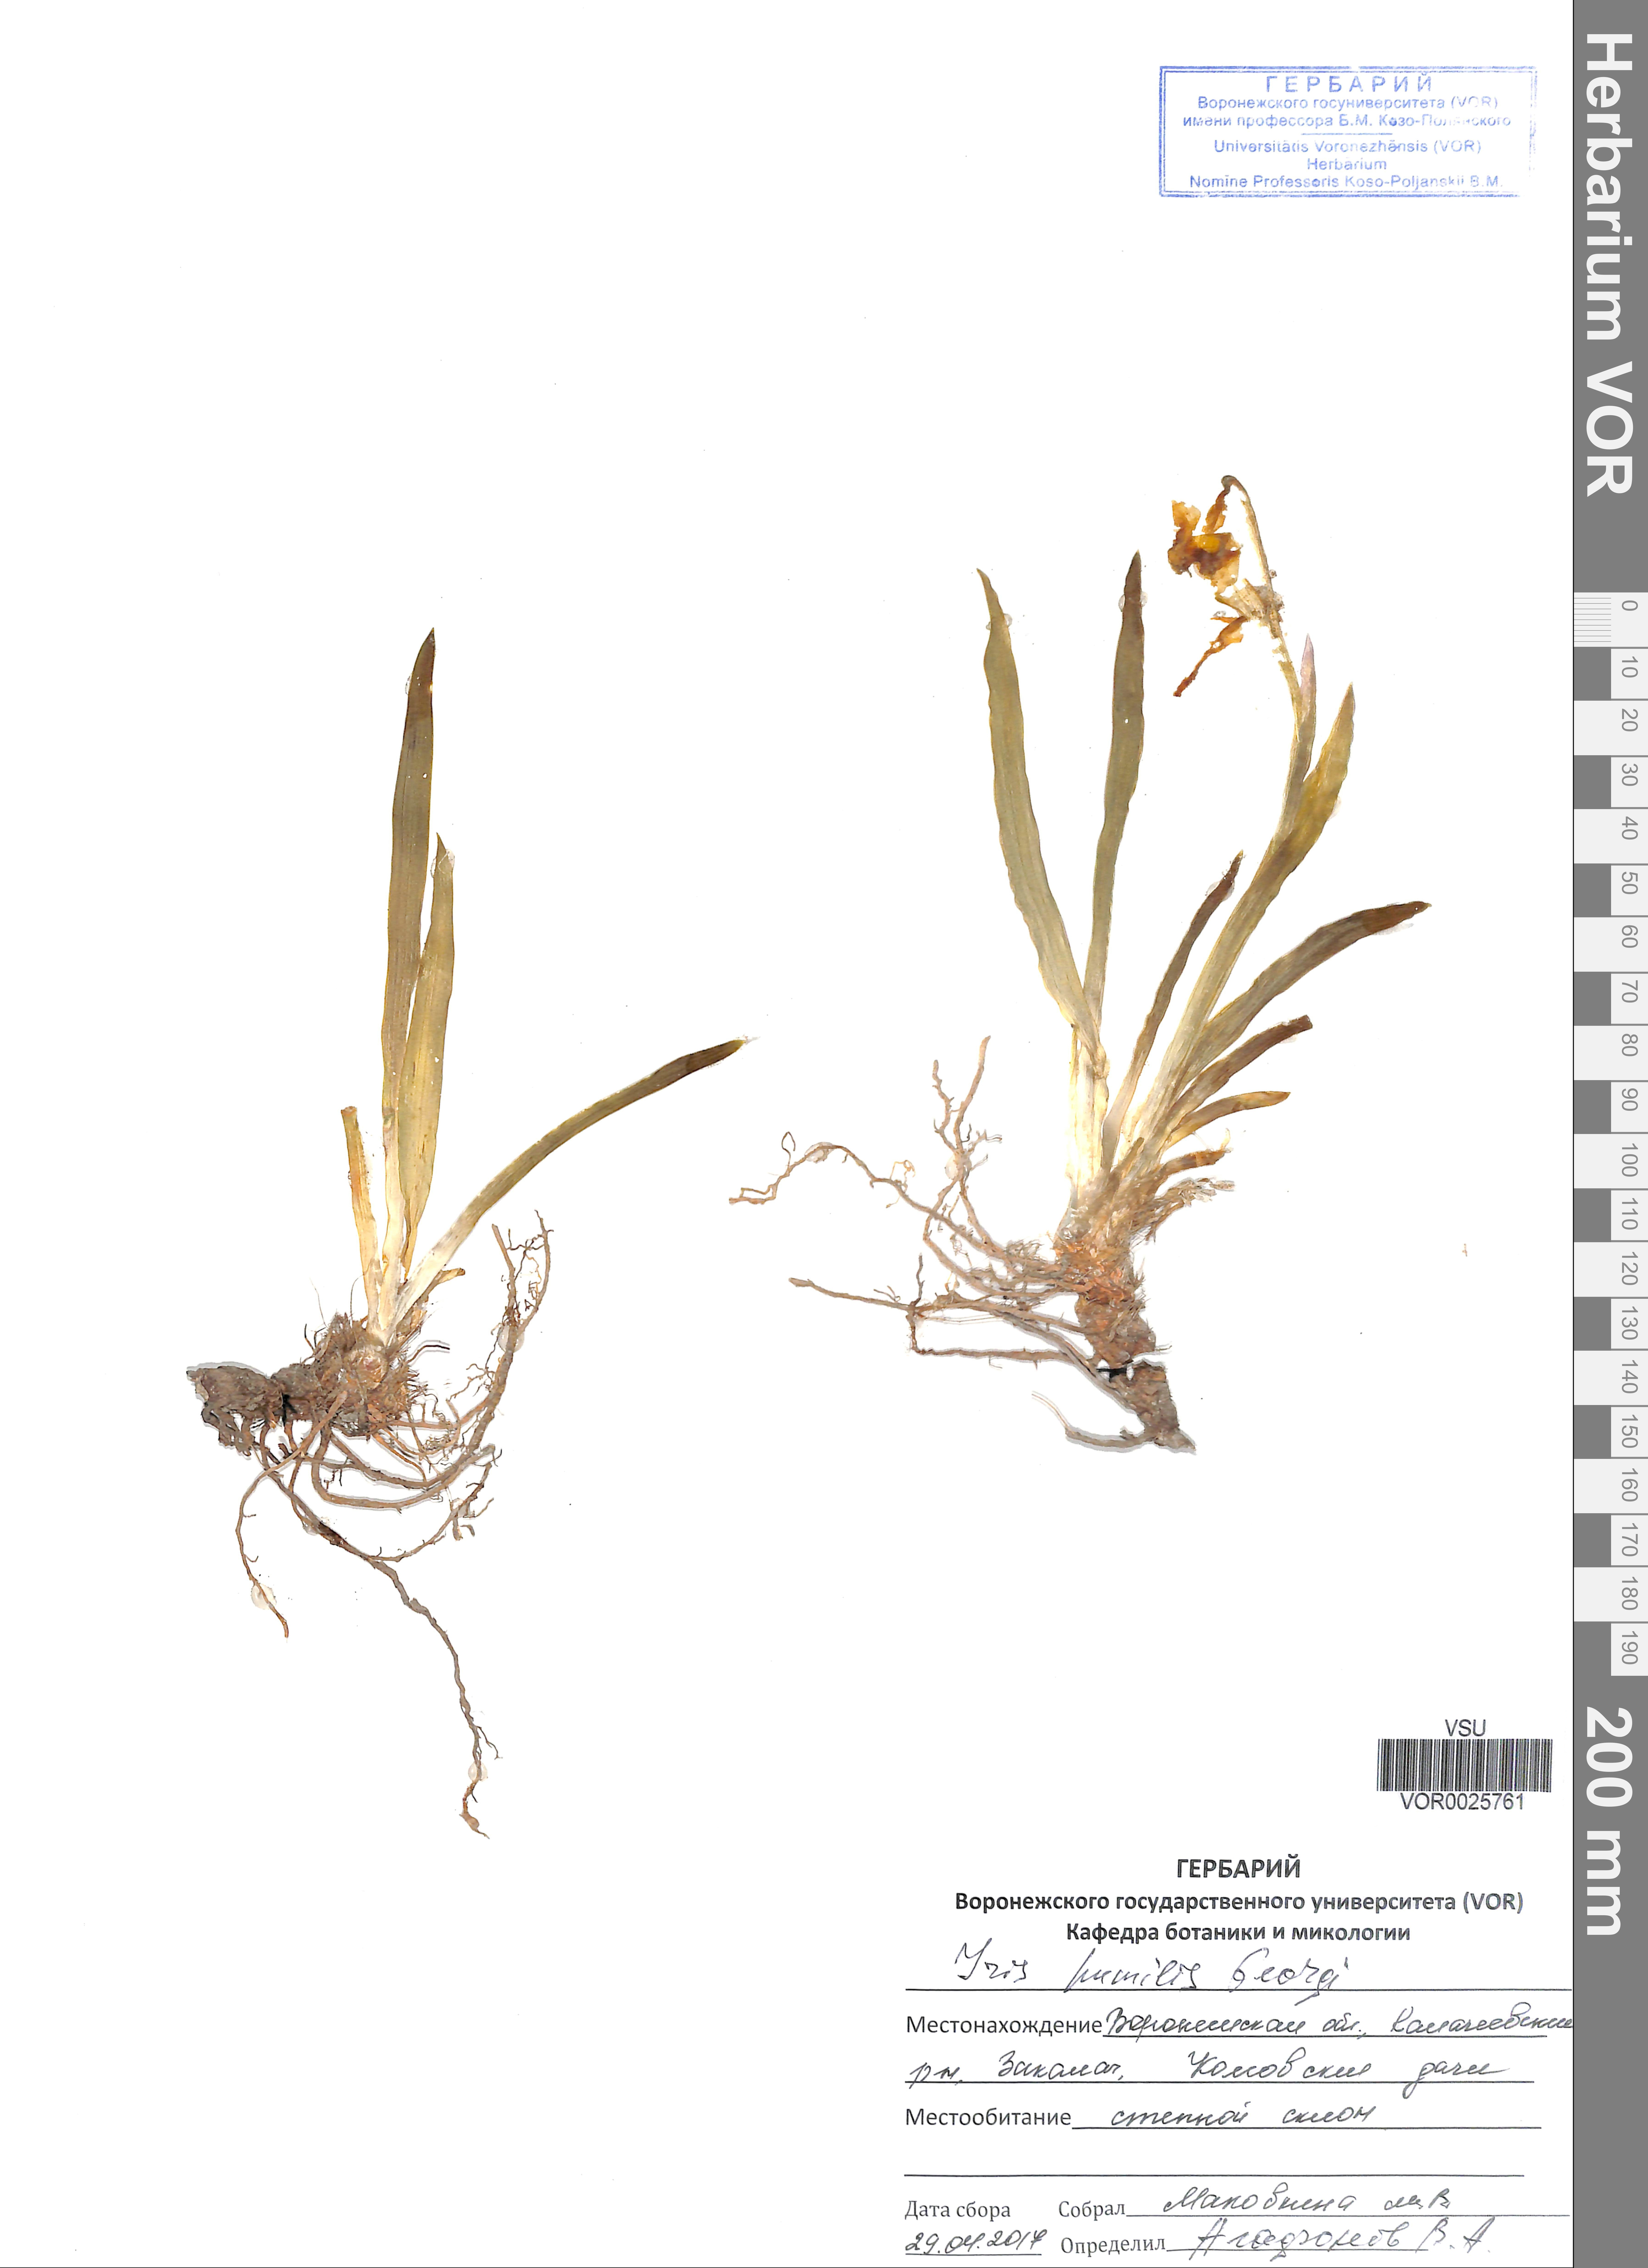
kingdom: Plantae
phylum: Tracheophyta
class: Liliopsida
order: Asparagales
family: Iridaceae
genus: Iris
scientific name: Iris humilis
